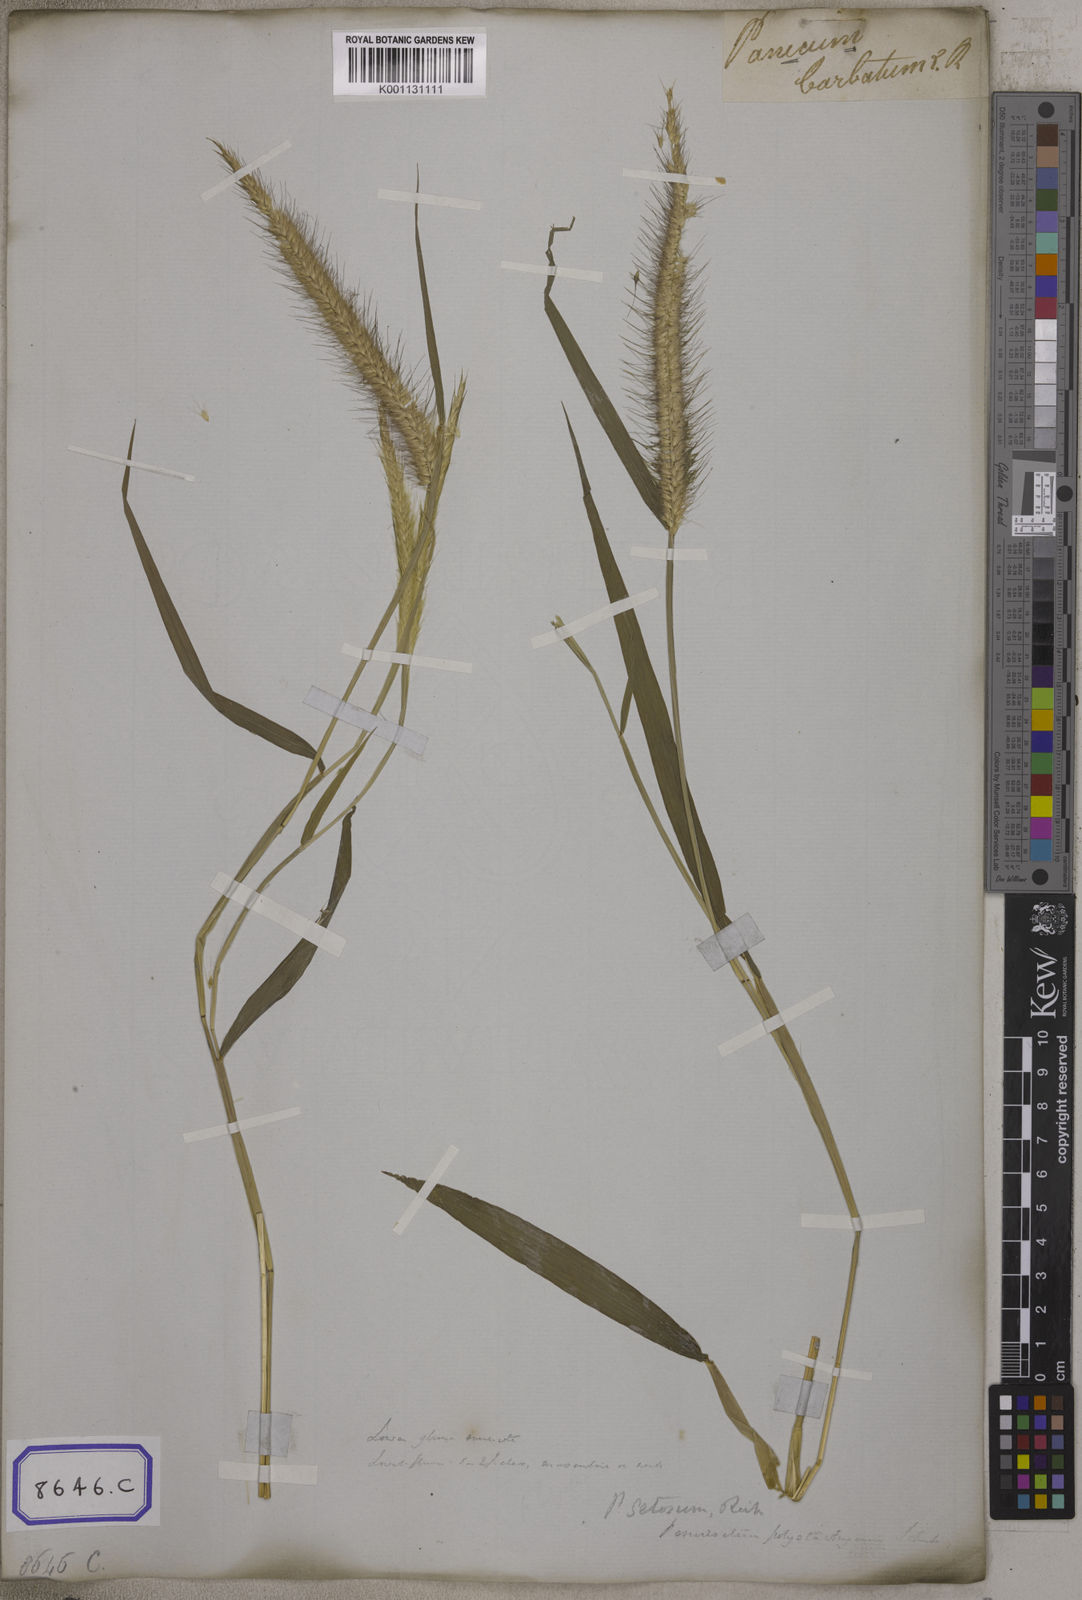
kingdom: Plantae
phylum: Tracheophyta
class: Liliopsida
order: Poales
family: Poaceae
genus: Cenchrus
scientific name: Cenchrus Pennisetum spec
